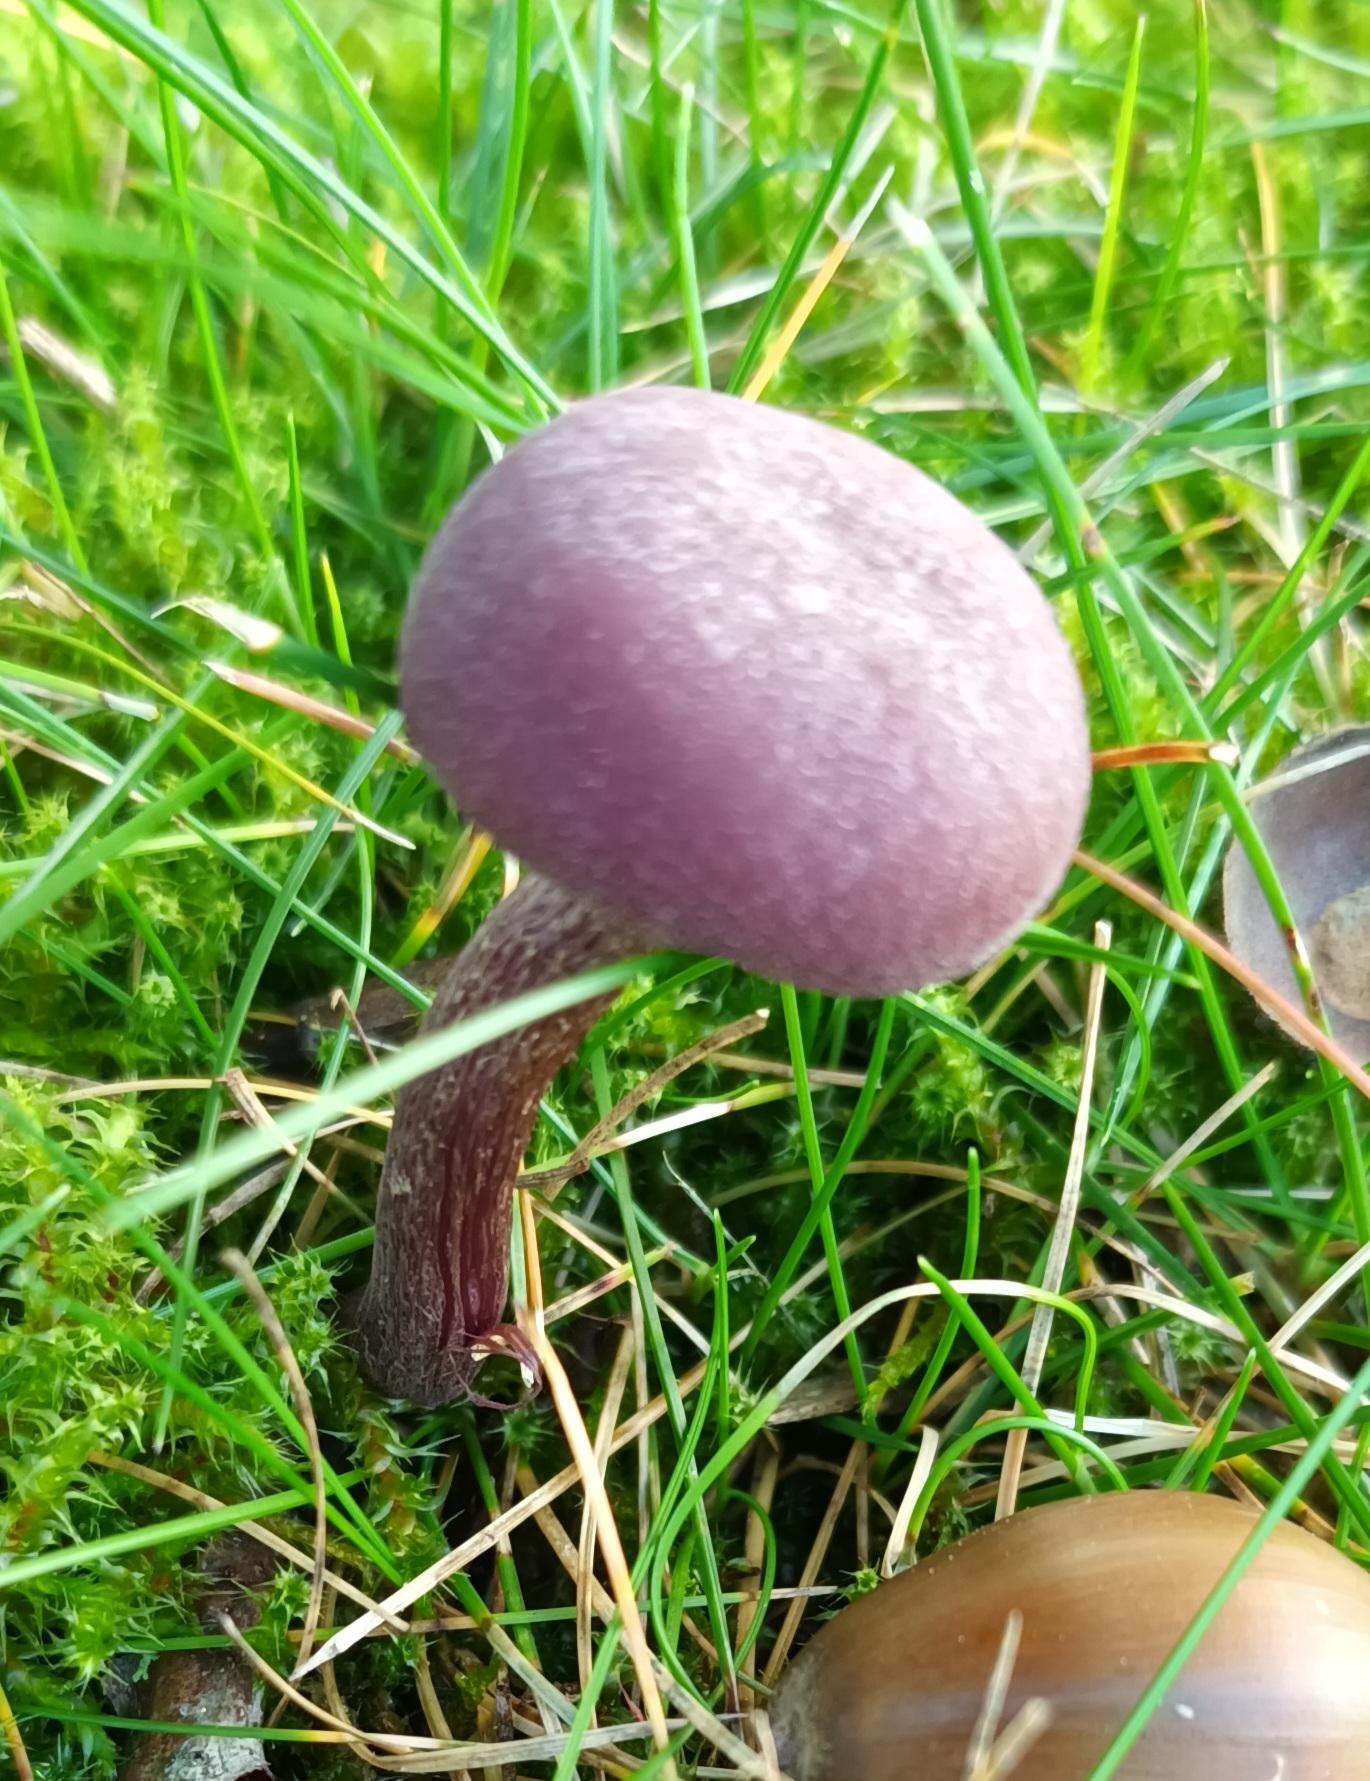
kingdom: Fungi
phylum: Basidiomycota
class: Agaricomycetes
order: Agaricales
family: Hydnangiaceae
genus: Laccaria
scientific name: Laccaria amethystina
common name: Violet ametysthat
